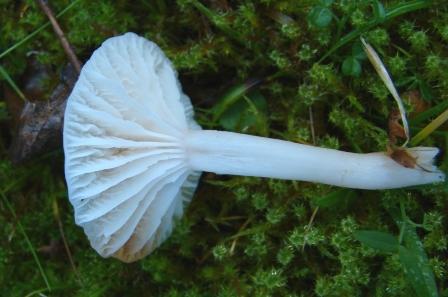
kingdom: Fungi
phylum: Basidiomycota
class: Agaricomycetes
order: Agaricales
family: Hygrophoraceae
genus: Cuphophyllus
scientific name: Cuphophyllus virgineus
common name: snehvid vokshat
